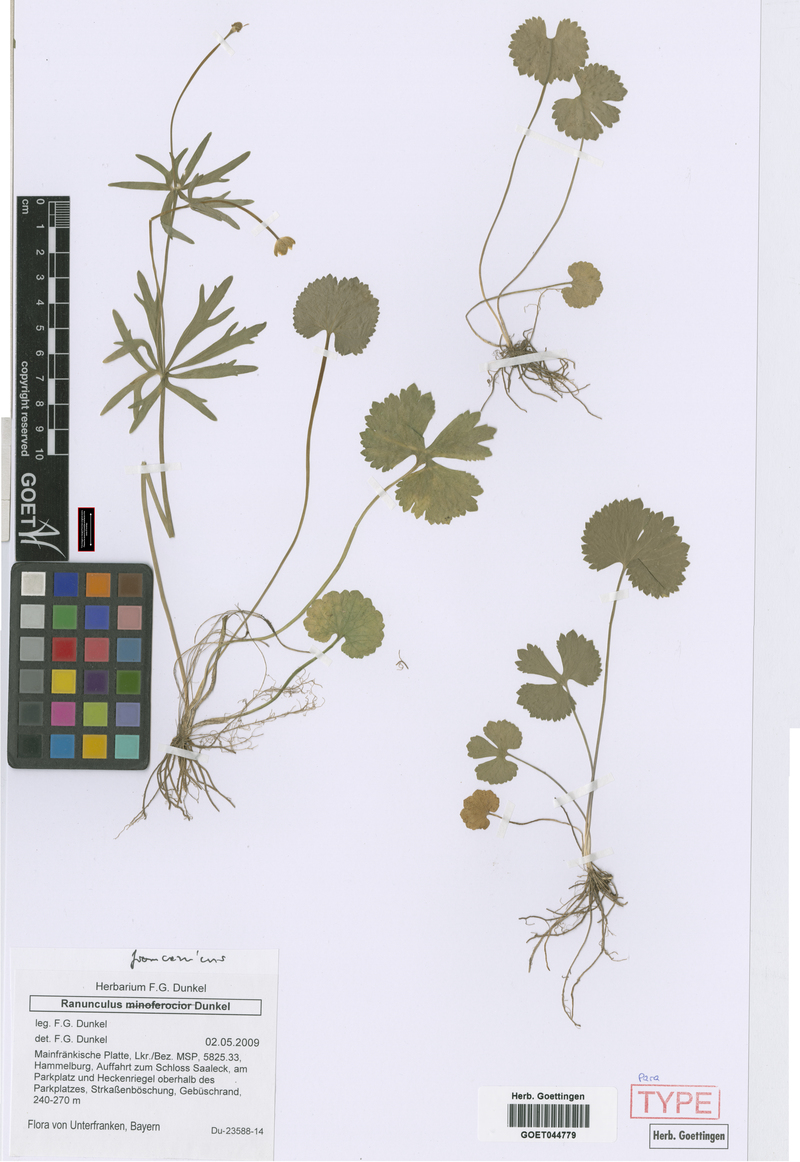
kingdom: Plantae
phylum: Tracheophyta
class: Magnoliopsida
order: Ranunculales
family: Ranunculaceae
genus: Ranunculus
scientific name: Ranunculus franconicus
